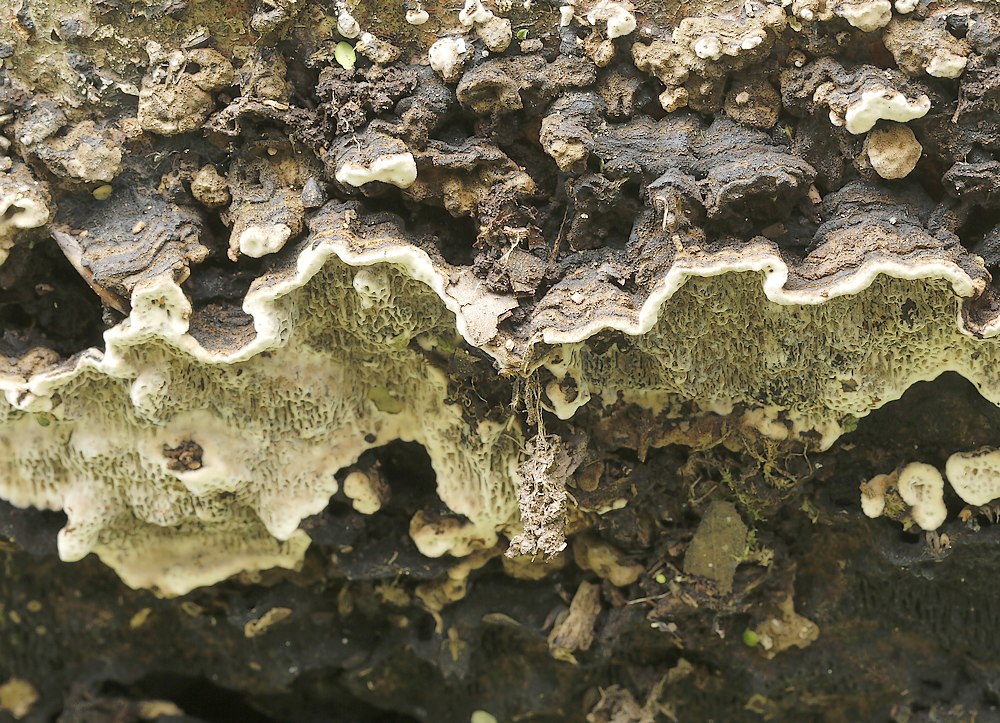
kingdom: Fungi
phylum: Basidiomycota
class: Agaricomycetes
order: Polyporales
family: Polyporaceae
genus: Podofomes
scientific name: Podofomes mollis
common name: blød begporesvamp
